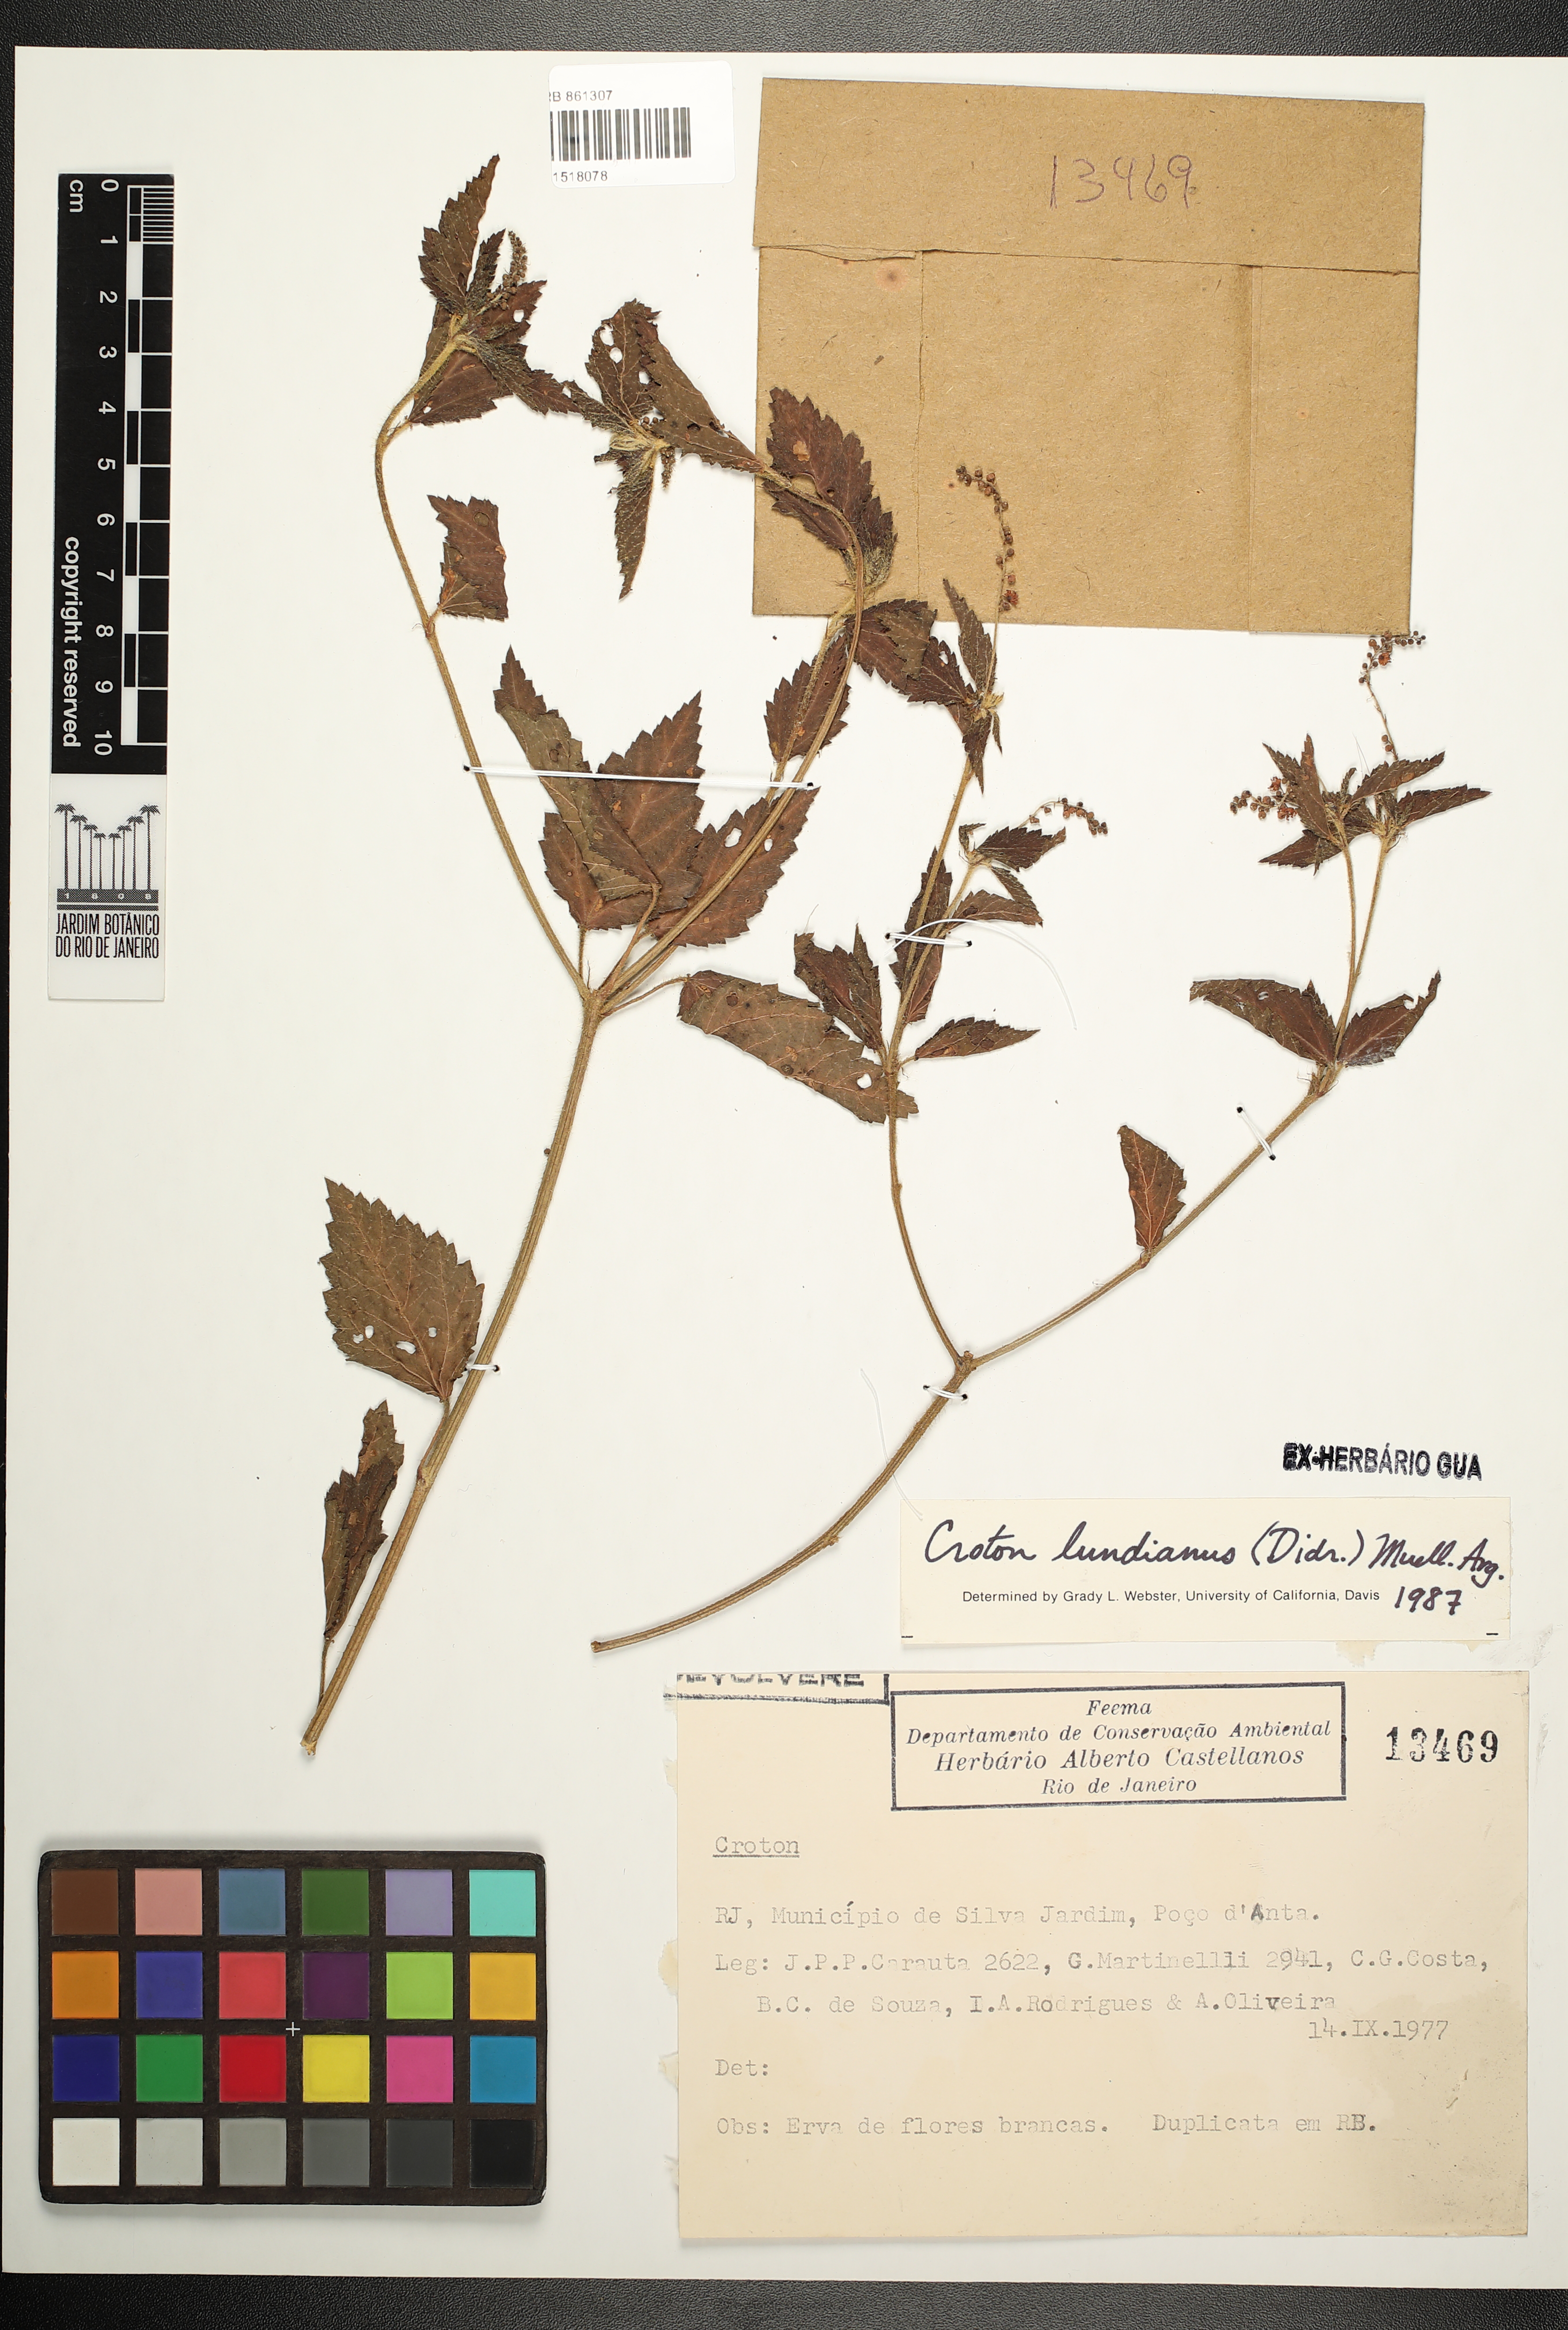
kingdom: Plantae
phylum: Tracheophyta
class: Magnoliopsida
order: Malpighiales
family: Euphorbiaceae
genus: Croton
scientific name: Croton lundianus
